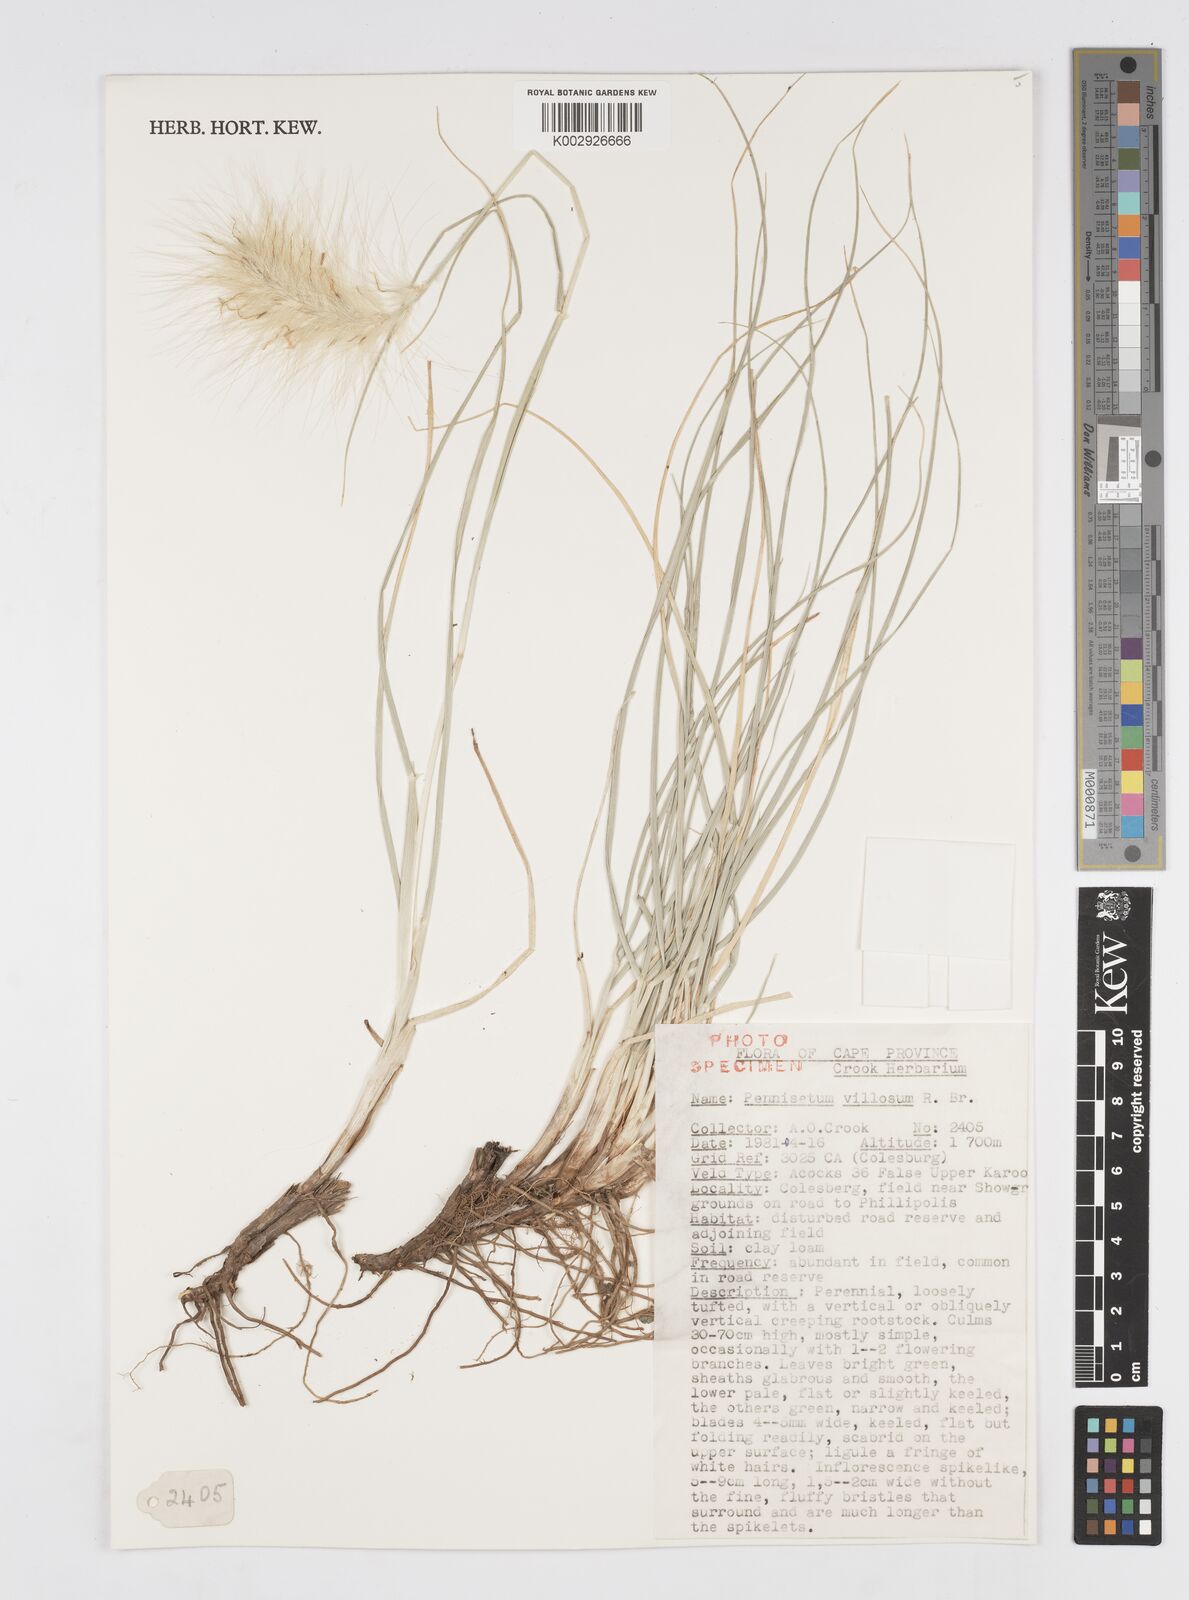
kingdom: Plantae
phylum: Tracheophyta
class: Liliopsida
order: Poales
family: Poaceae
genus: Cenchrus
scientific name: Cenchrus longisetus
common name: Feathertop
